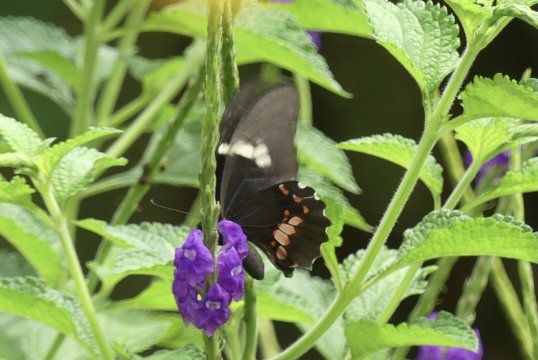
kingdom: Animalia
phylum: Arthropoda
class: Insecta
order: Lepidoptera
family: Papilionidae
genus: Papilio
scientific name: Papilio anchisiades
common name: Ruby-spotted Swallowtail
